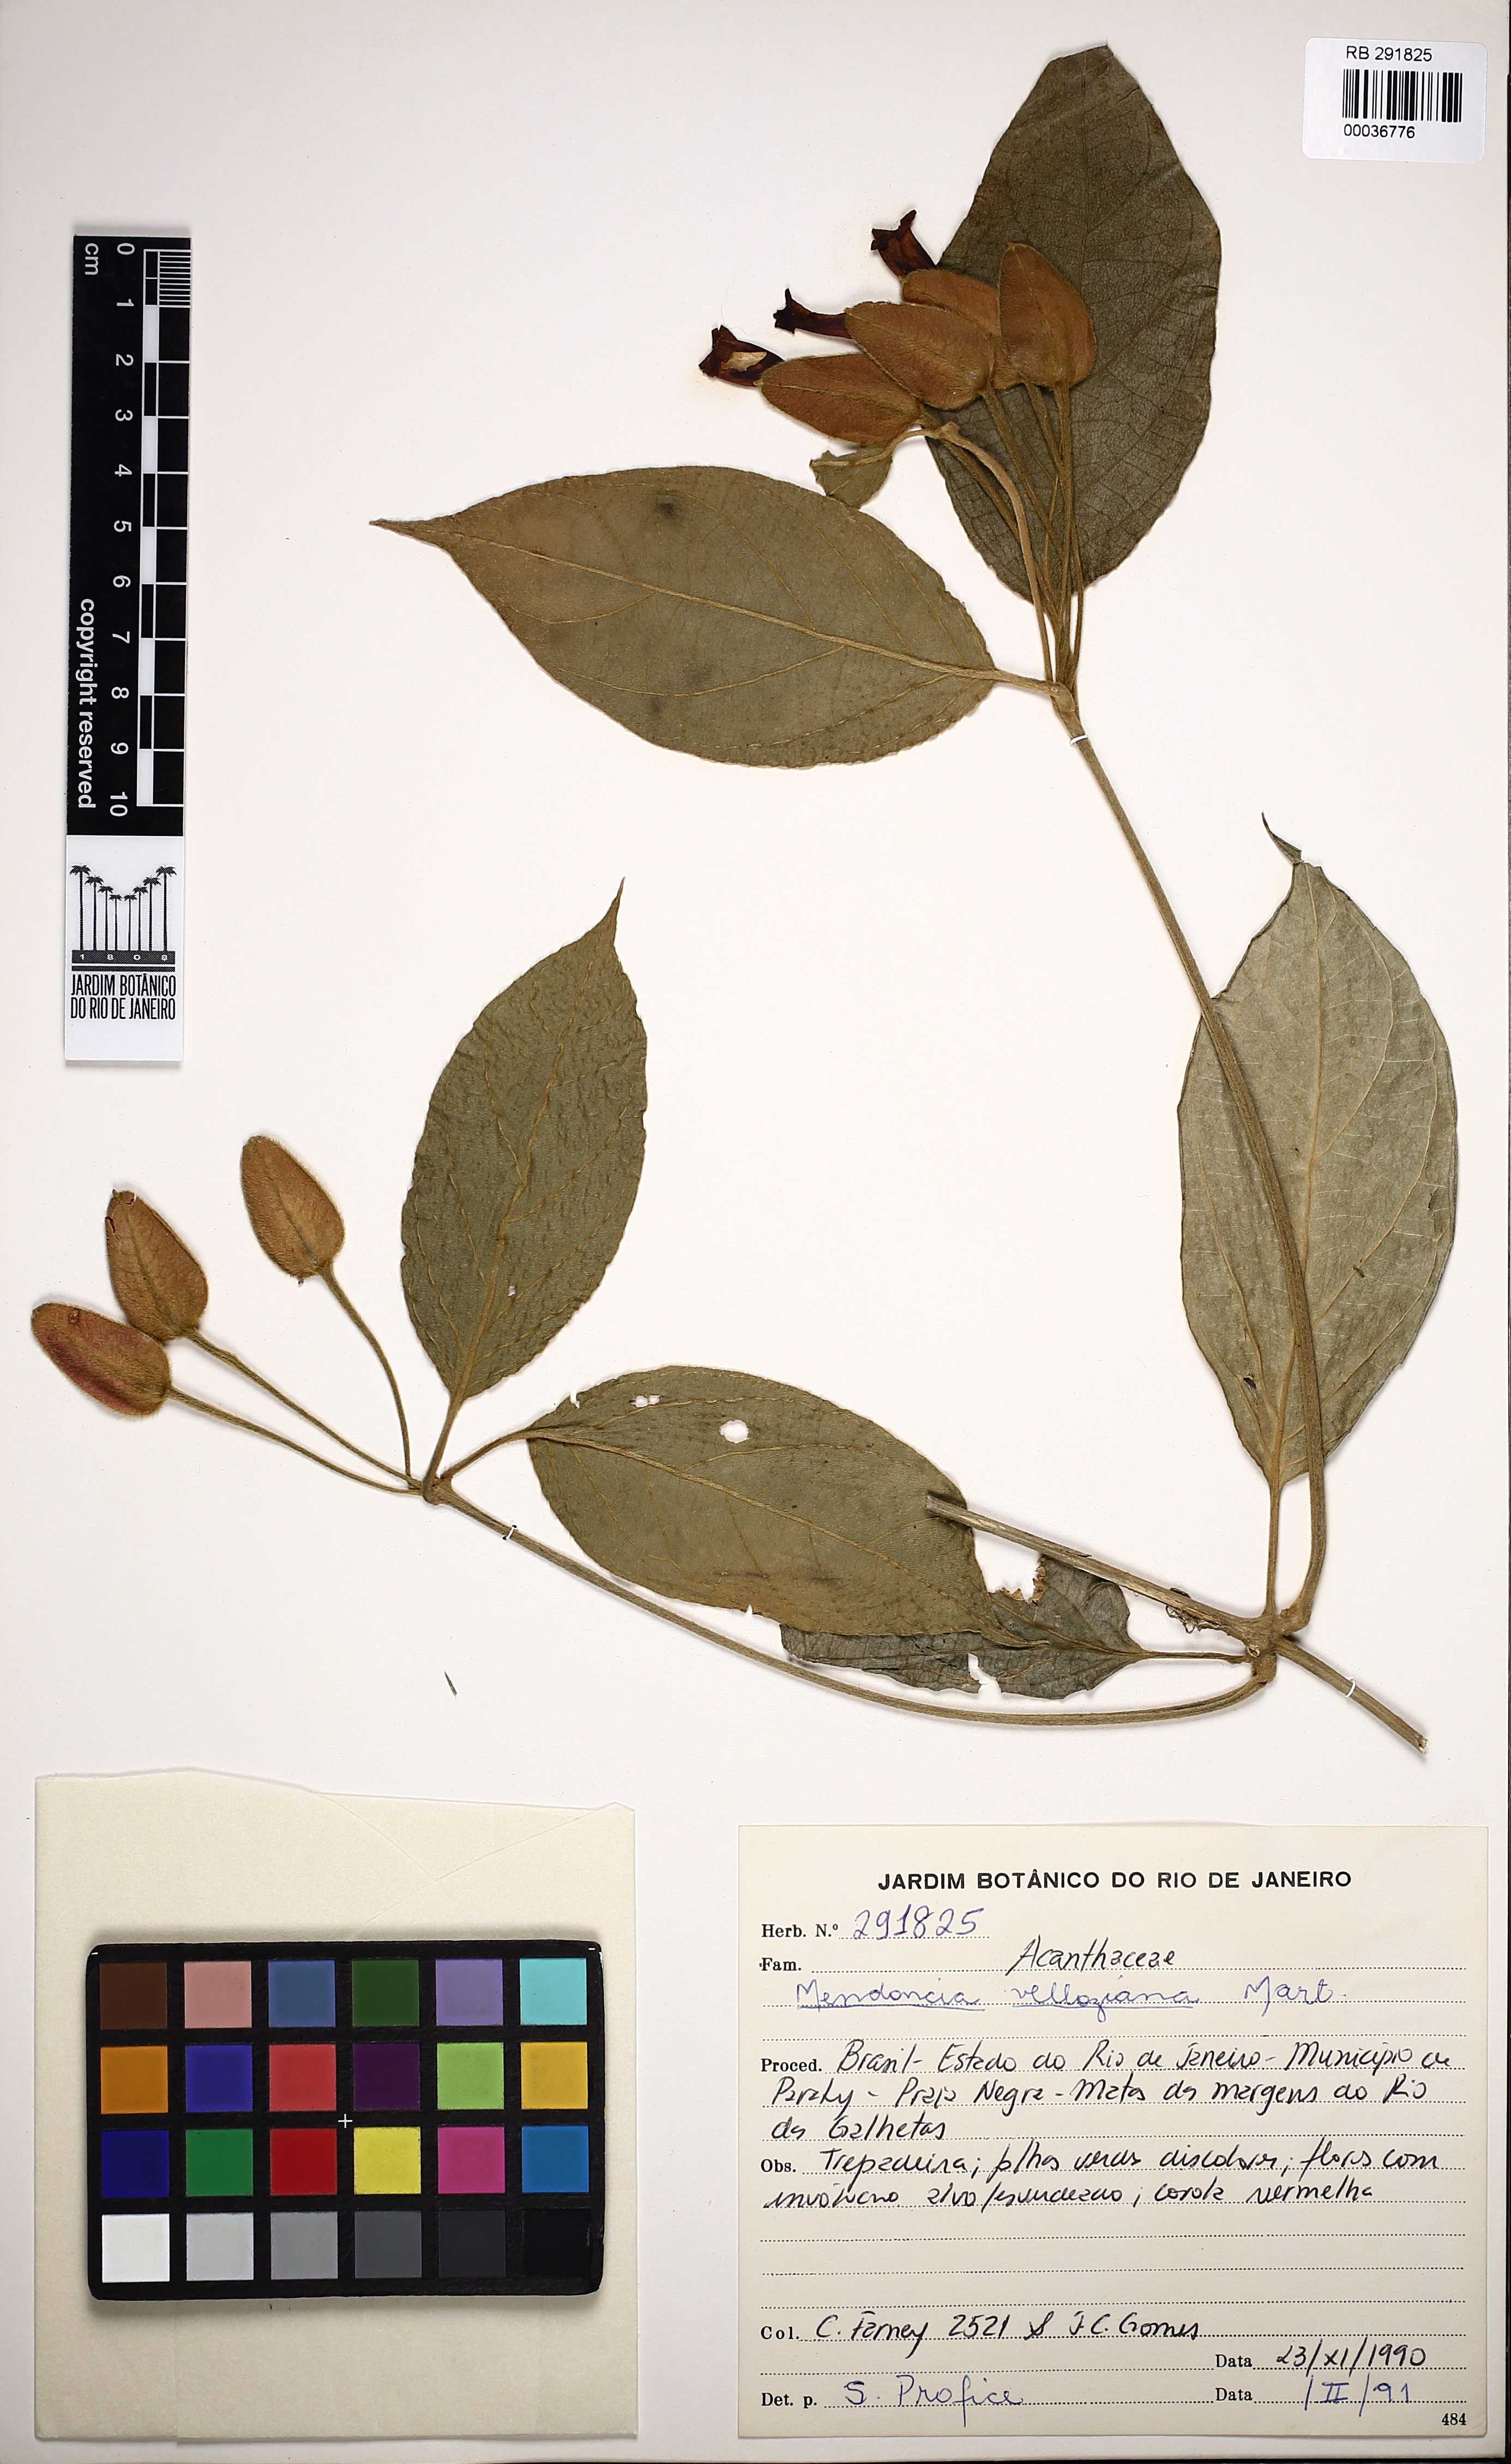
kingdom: Plantae
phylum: Tracheophyta
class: Magnoliopsida
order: Lamiales
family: Acanthaceae
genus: Mendoncia
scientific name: Mendoncia velloziana
